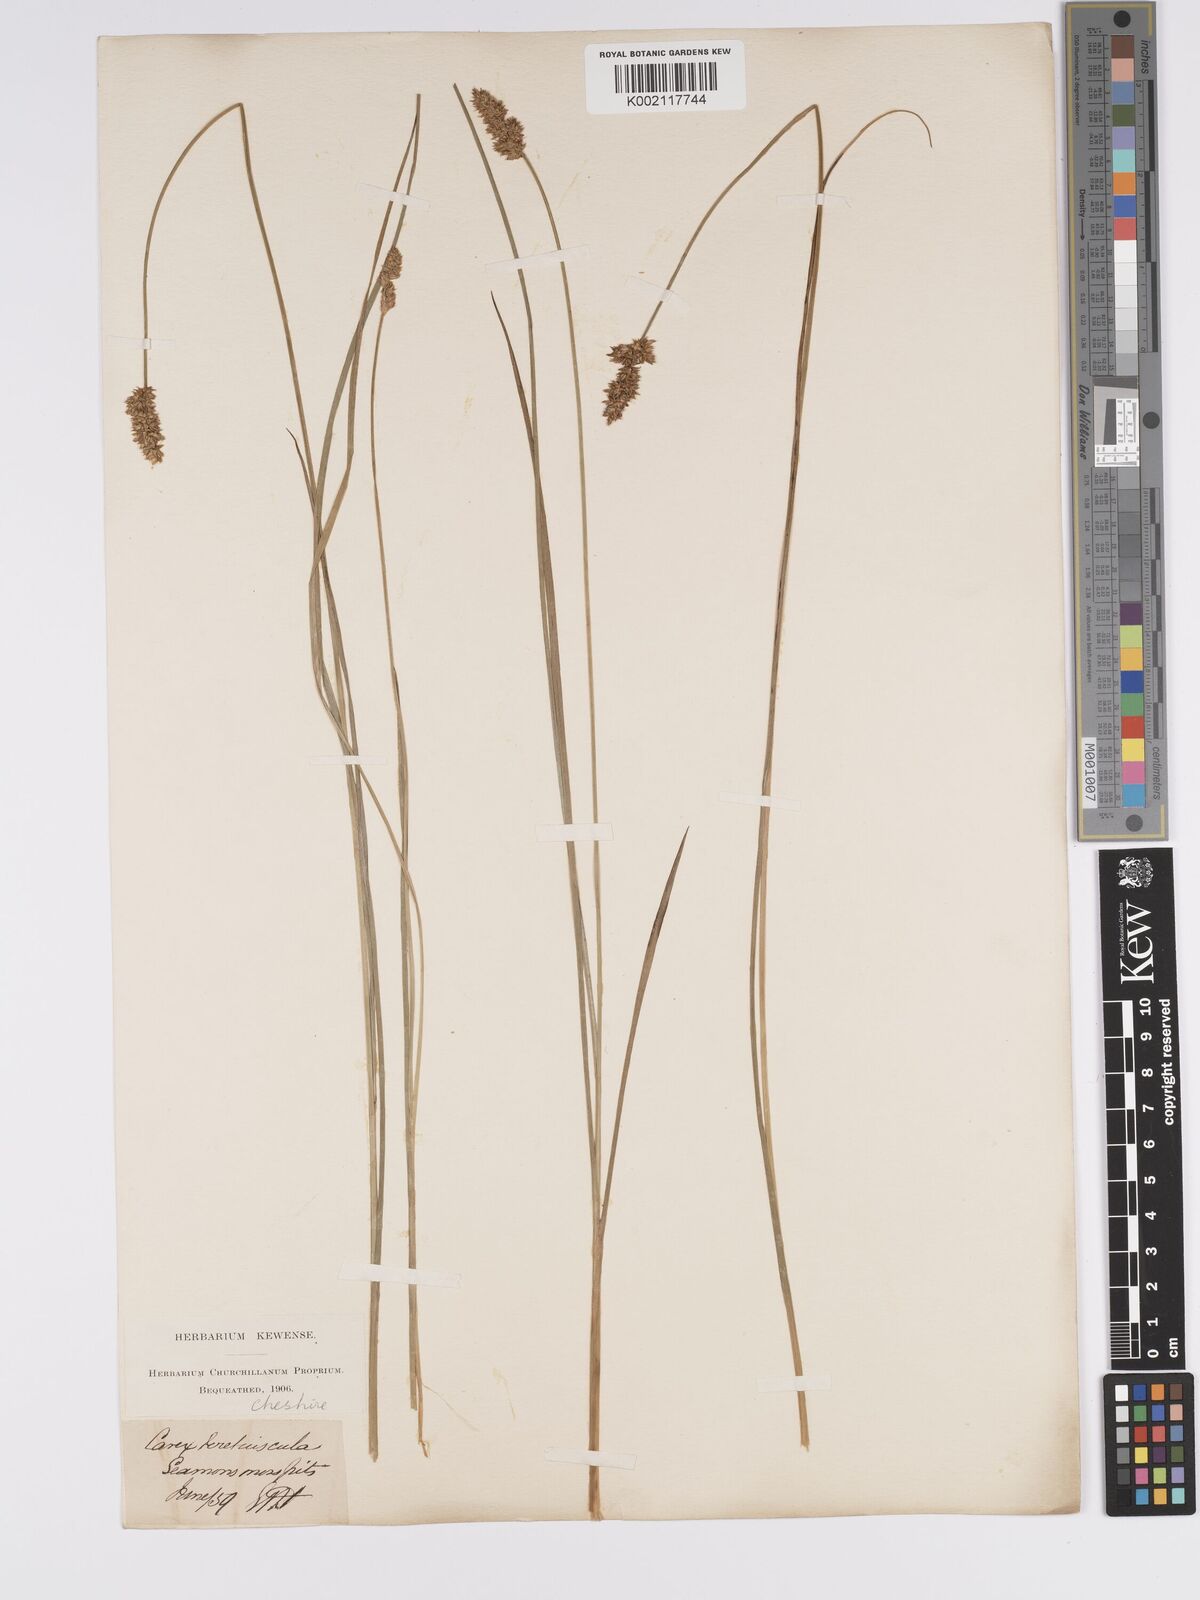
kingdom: Plantae
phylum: Tracheophyta
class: Liliopsida
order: Poales
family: Cyperaceae
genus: Carex
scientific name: Carex diandra
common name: Lesser tussock-sedge
